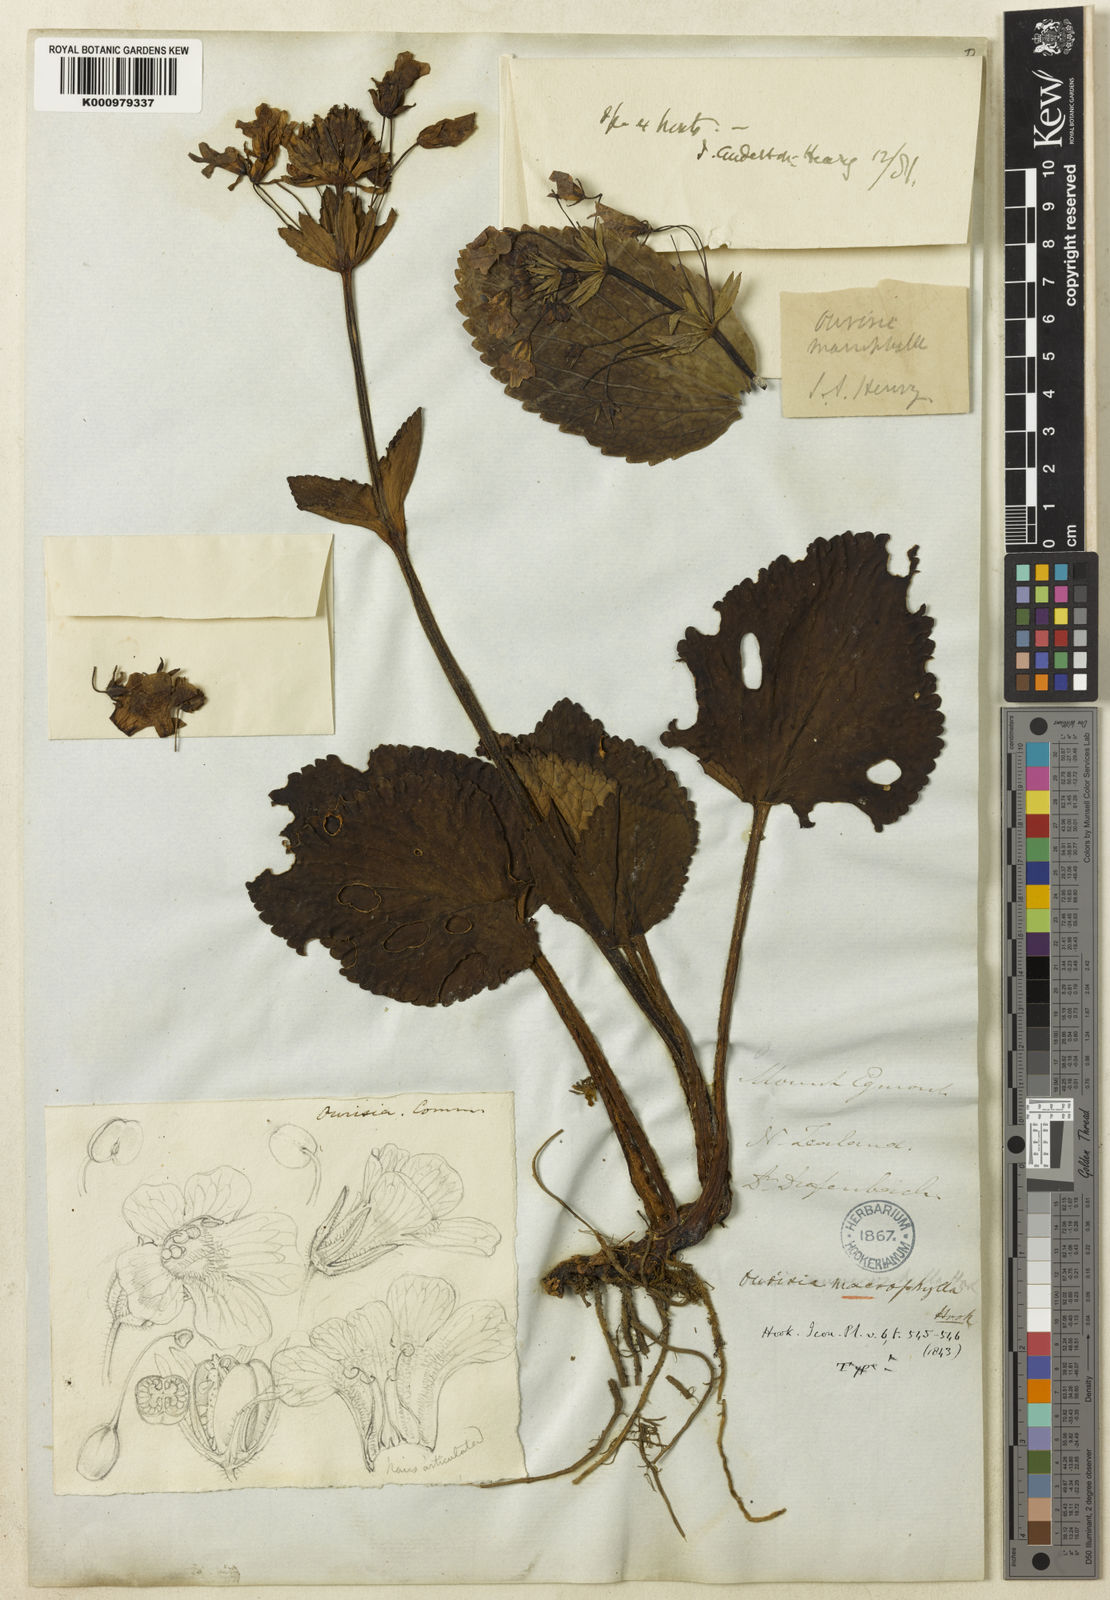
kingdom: Plantae
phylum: Tracheophyta
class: Magnoliopsida
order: Lamiales
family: Plantaginaceae
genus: Ourisia
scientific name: Ourisia macrophylla
